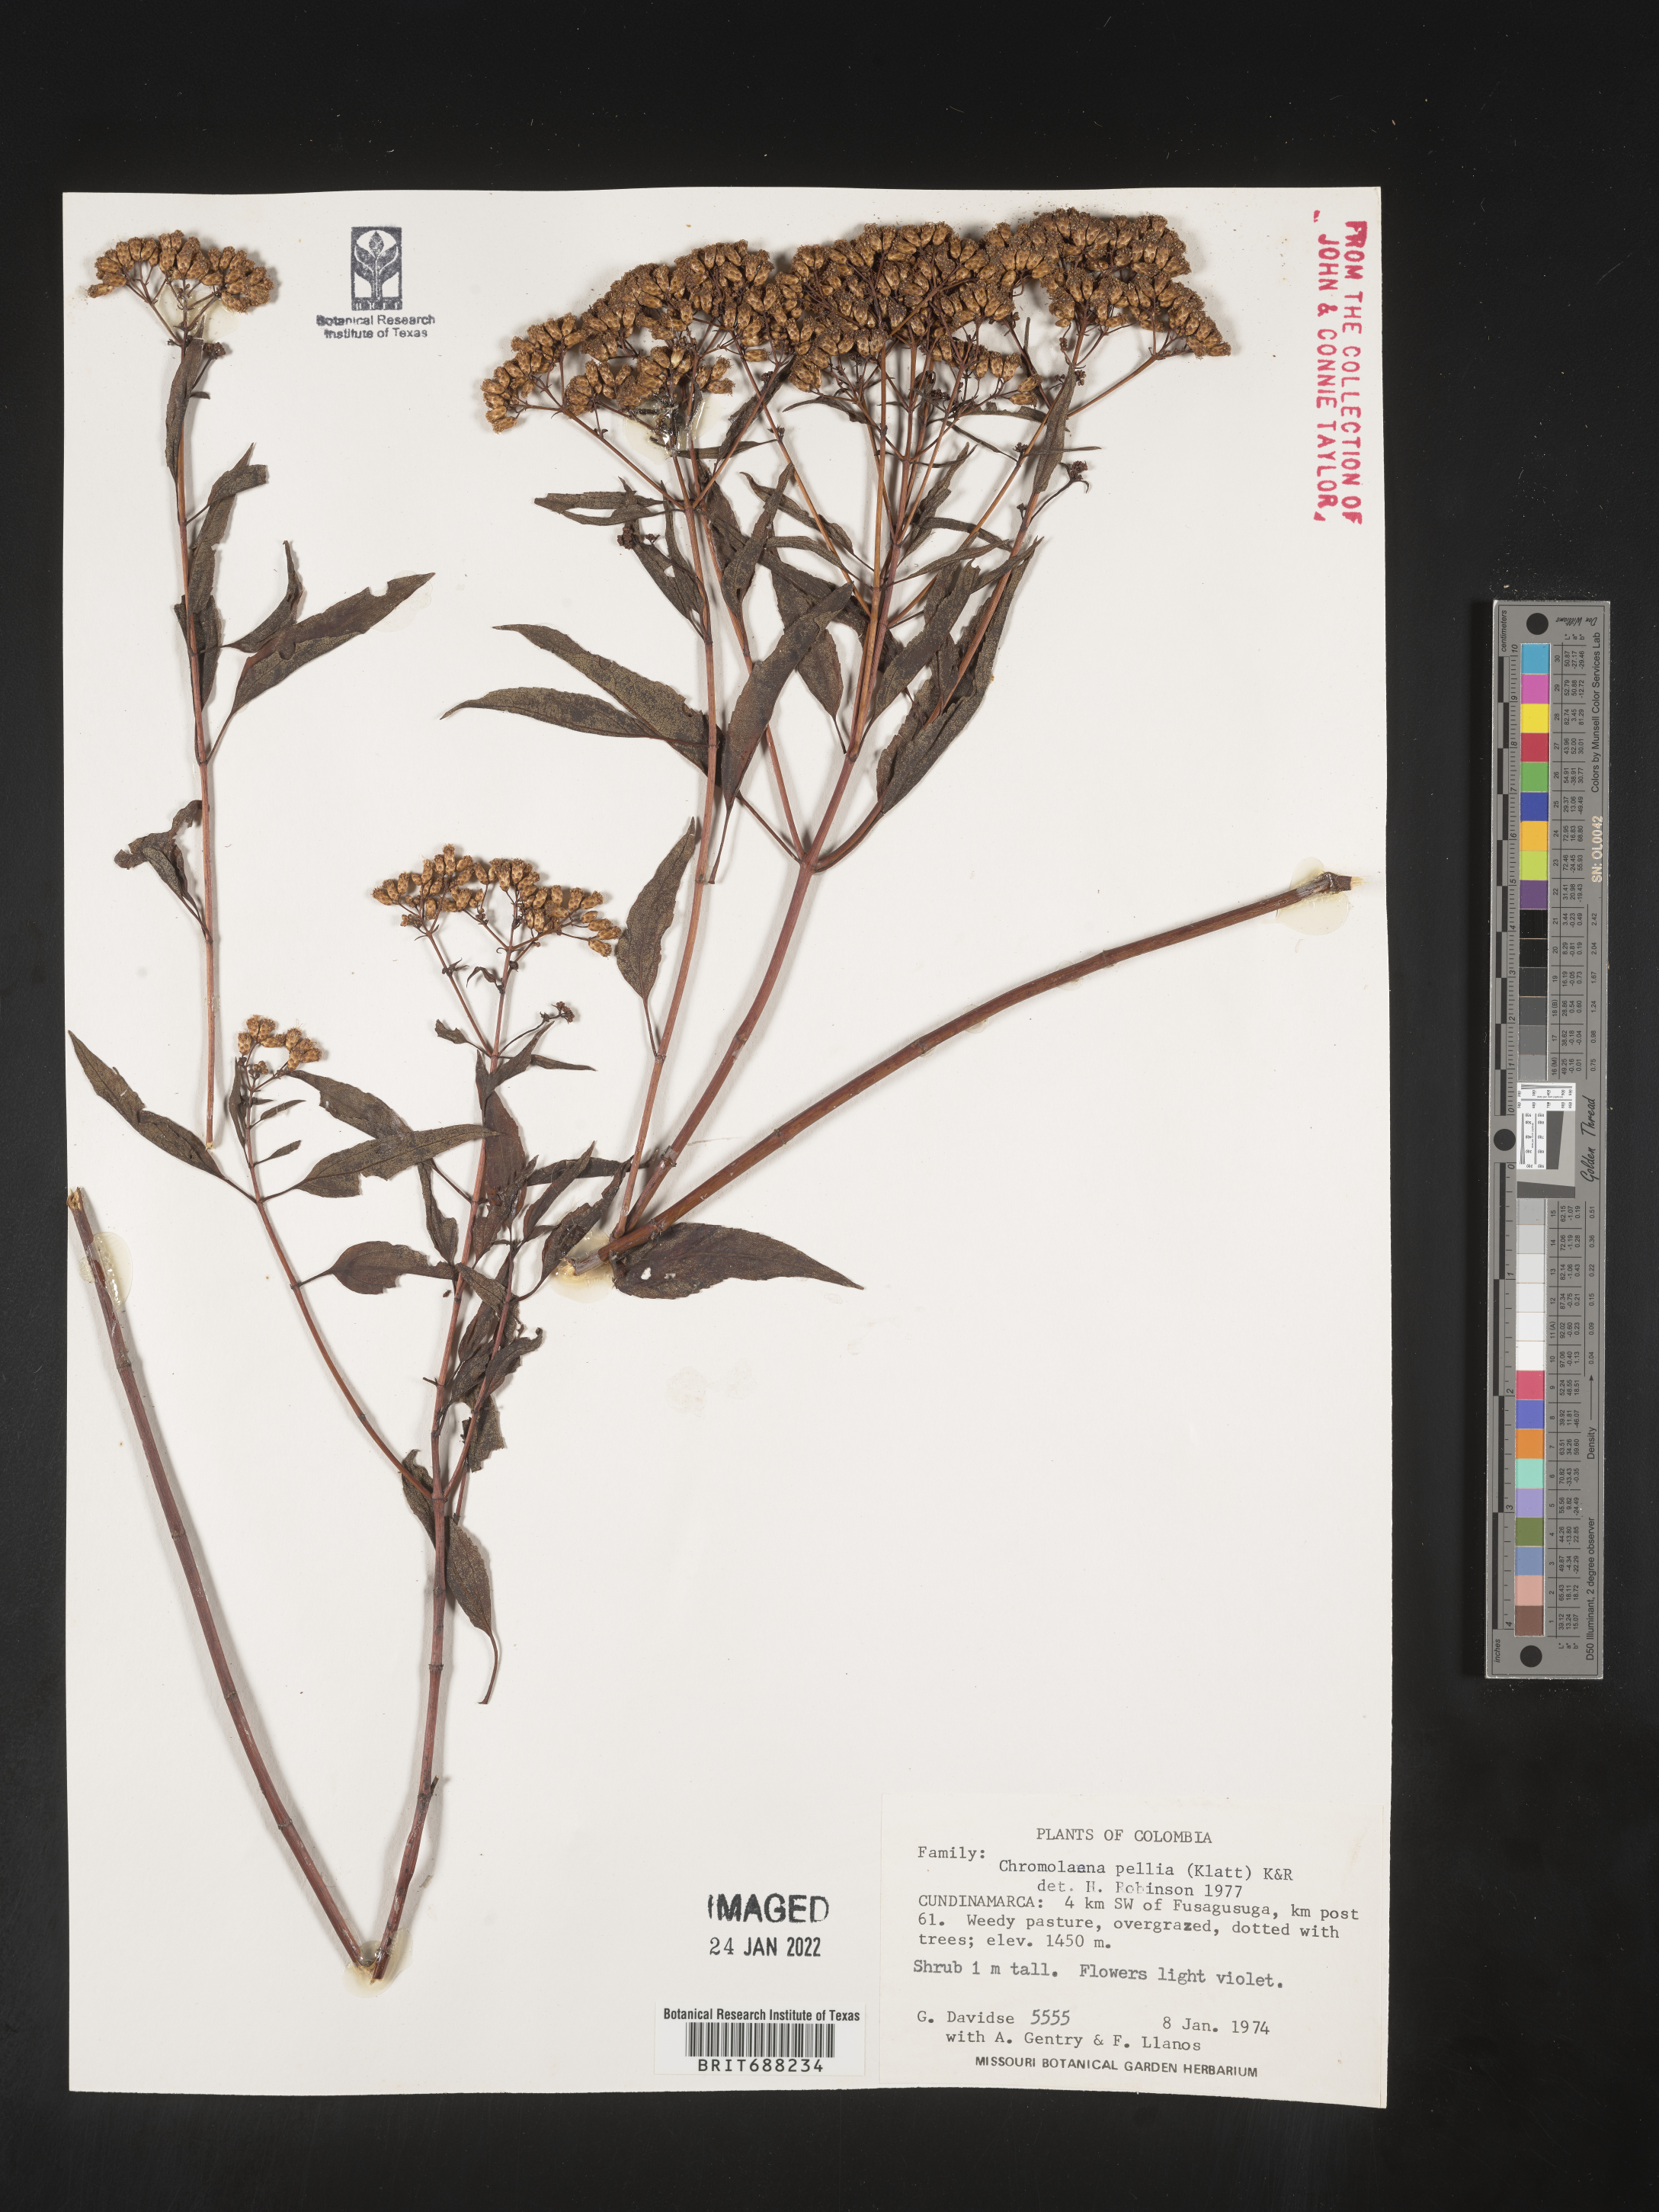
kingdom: Plantae
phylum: Tracheophyta
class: Magnoliopsida
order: Asterales
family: Asteraceae
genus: Chromolaena
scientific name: Chromolaena
